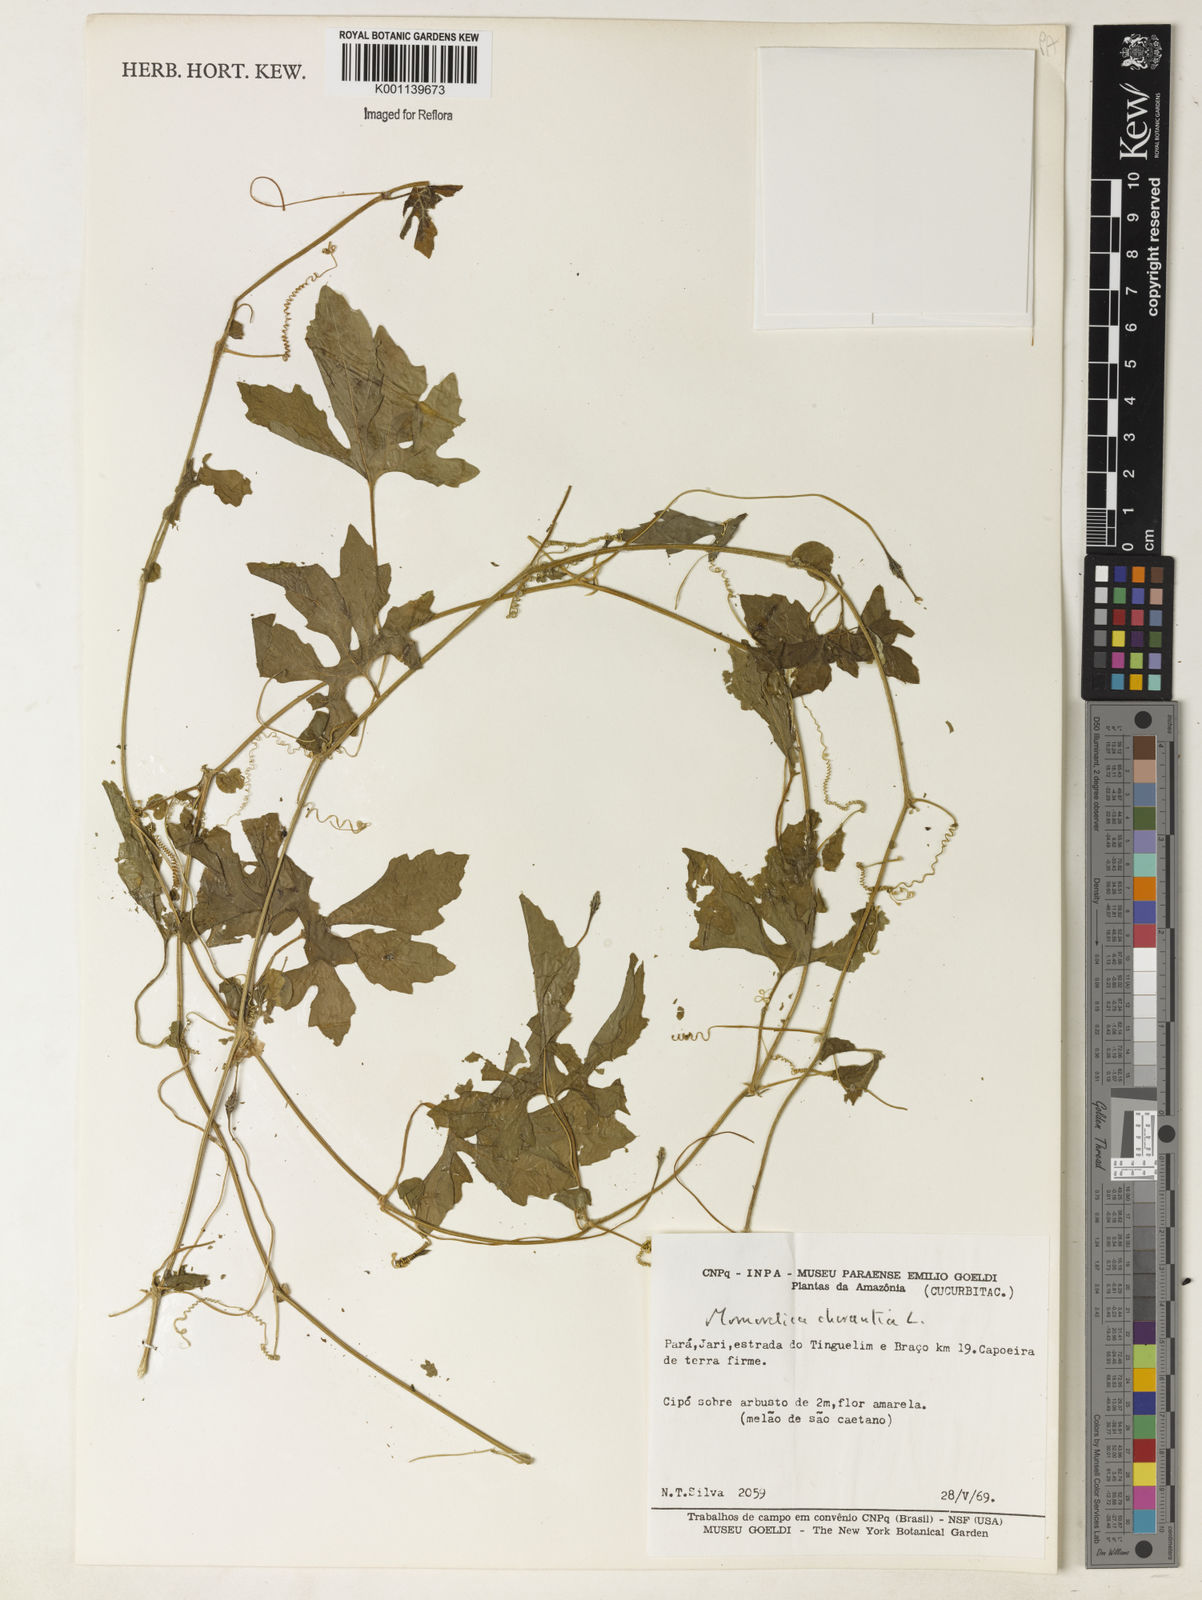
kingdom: Plantae
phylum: Tracheophyta
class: Magnoliopsida
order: Cucurbitales
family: Cucurbitaceae
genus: Momordica
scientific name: Momordica charantia
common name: Balsampear
